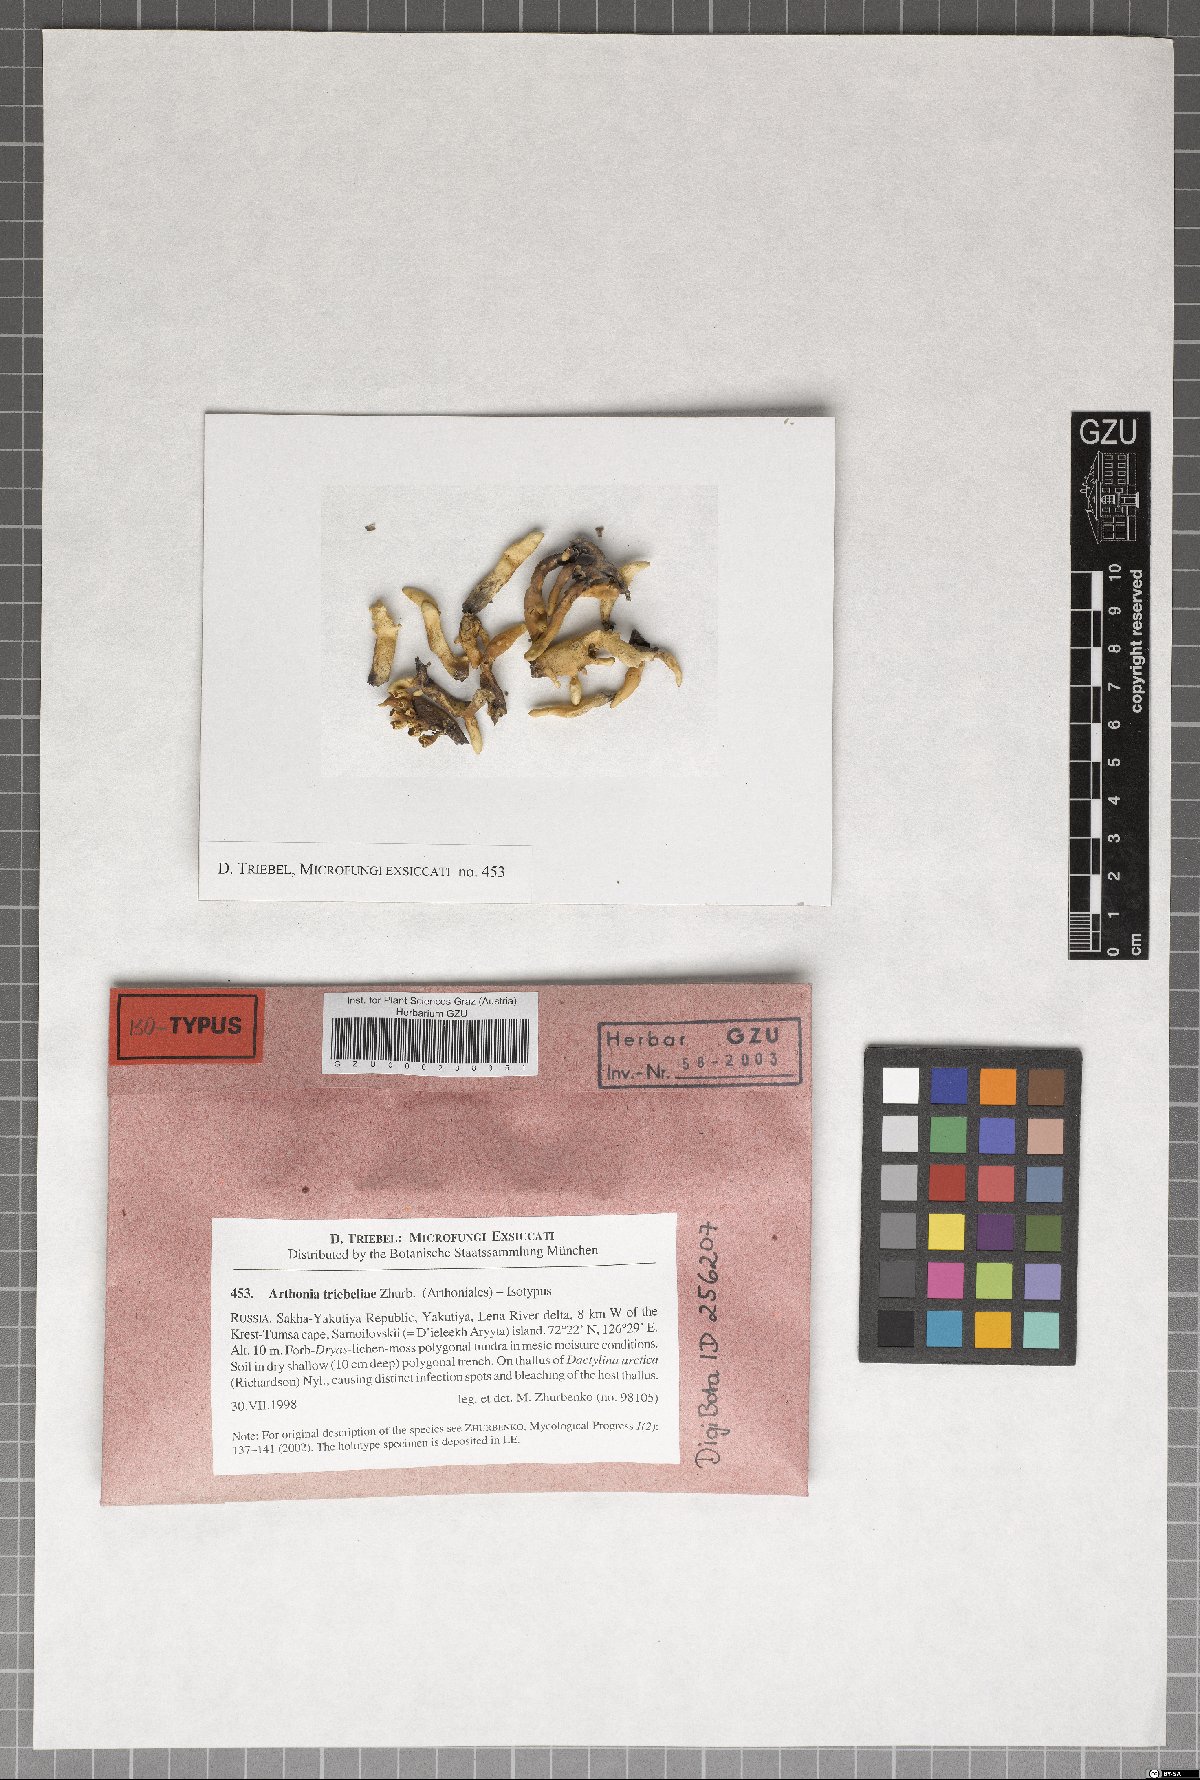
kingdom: Plantae
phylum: Marchantiophyta
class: Jungermanniopsida
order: Jungermanniales
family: Cephaloziaceae
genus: Odontoschisma
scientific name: Odontoschisma
